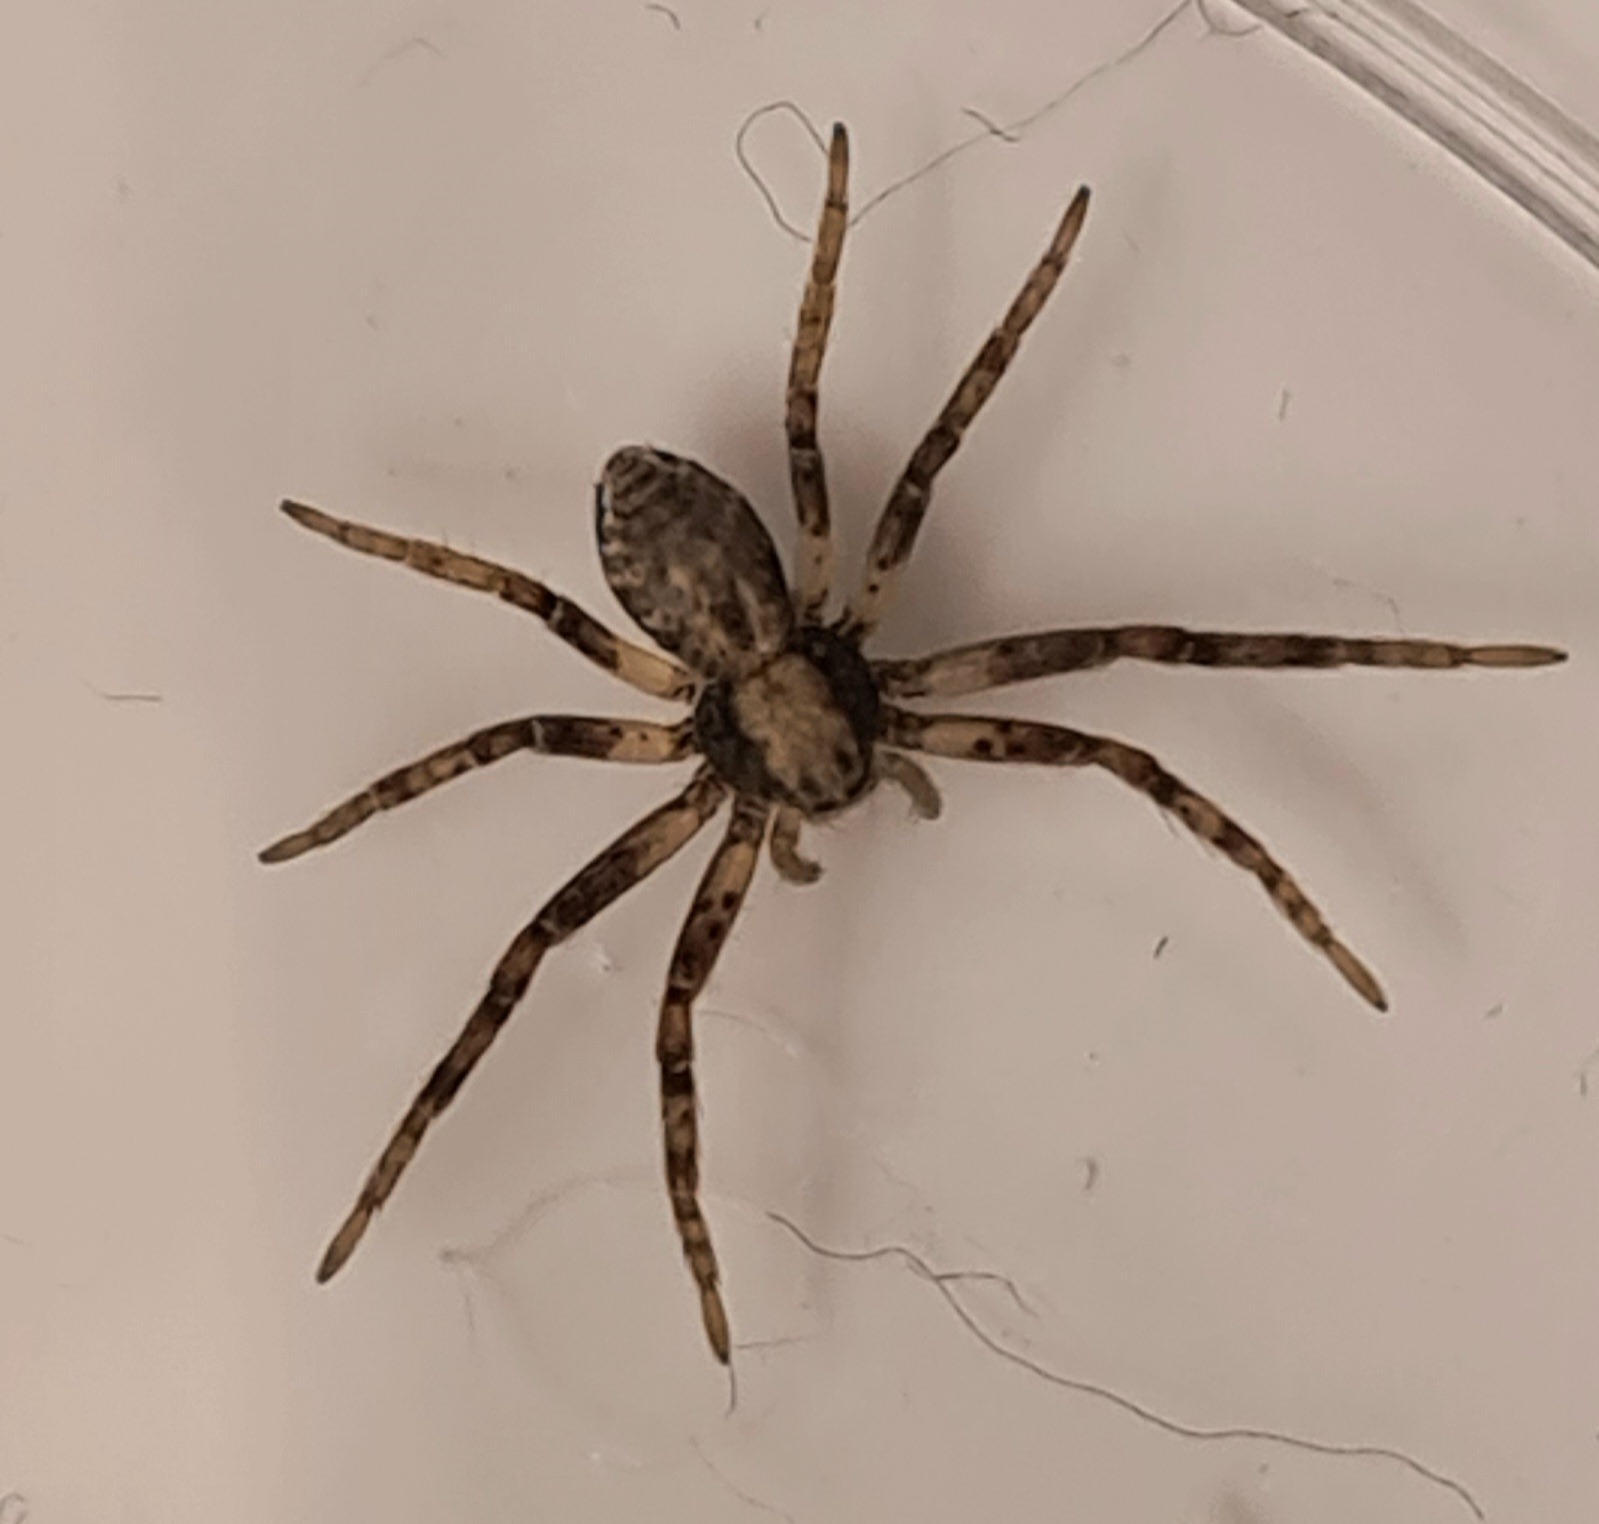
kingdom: Animalia
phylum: Arthropoda
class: Arachnida
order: Araneae
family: Philodromidae
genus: Philodromus
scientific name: Philodromus
